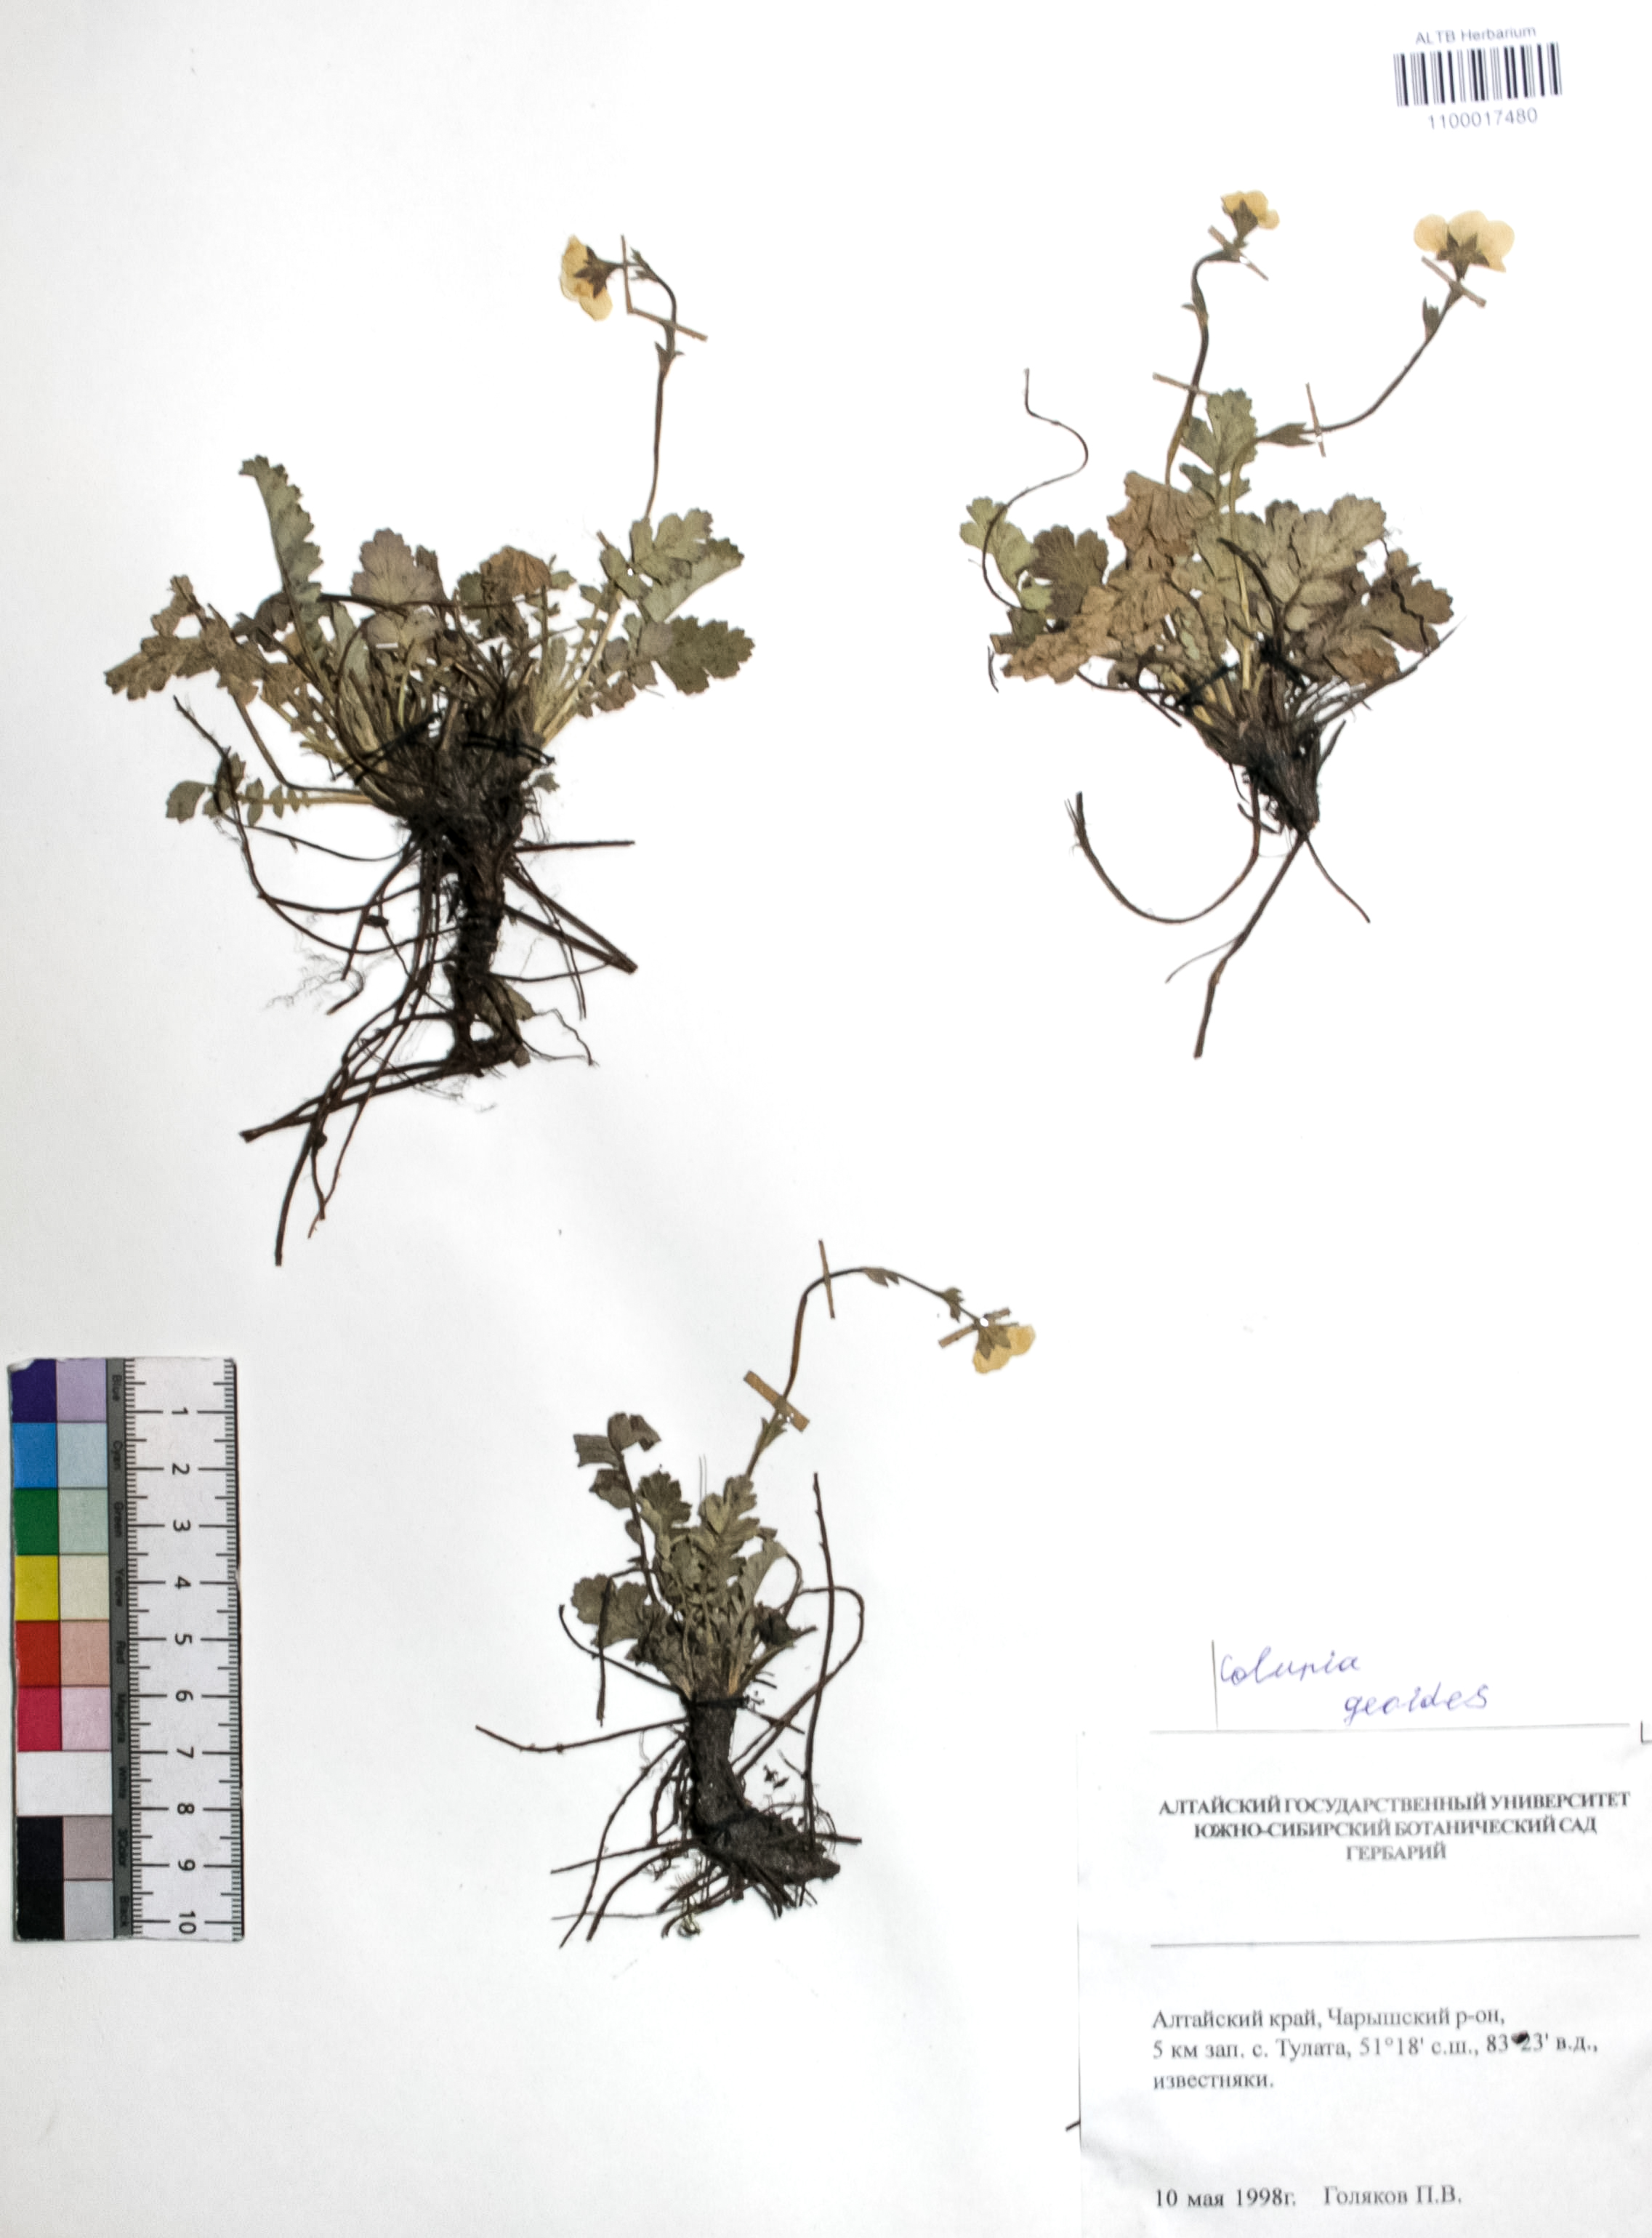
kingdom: Plantae
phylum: Tracheophyta
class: Magnoliopsida
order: Rosales
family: Rosaceae
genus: Geum
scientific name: Geum geoides
